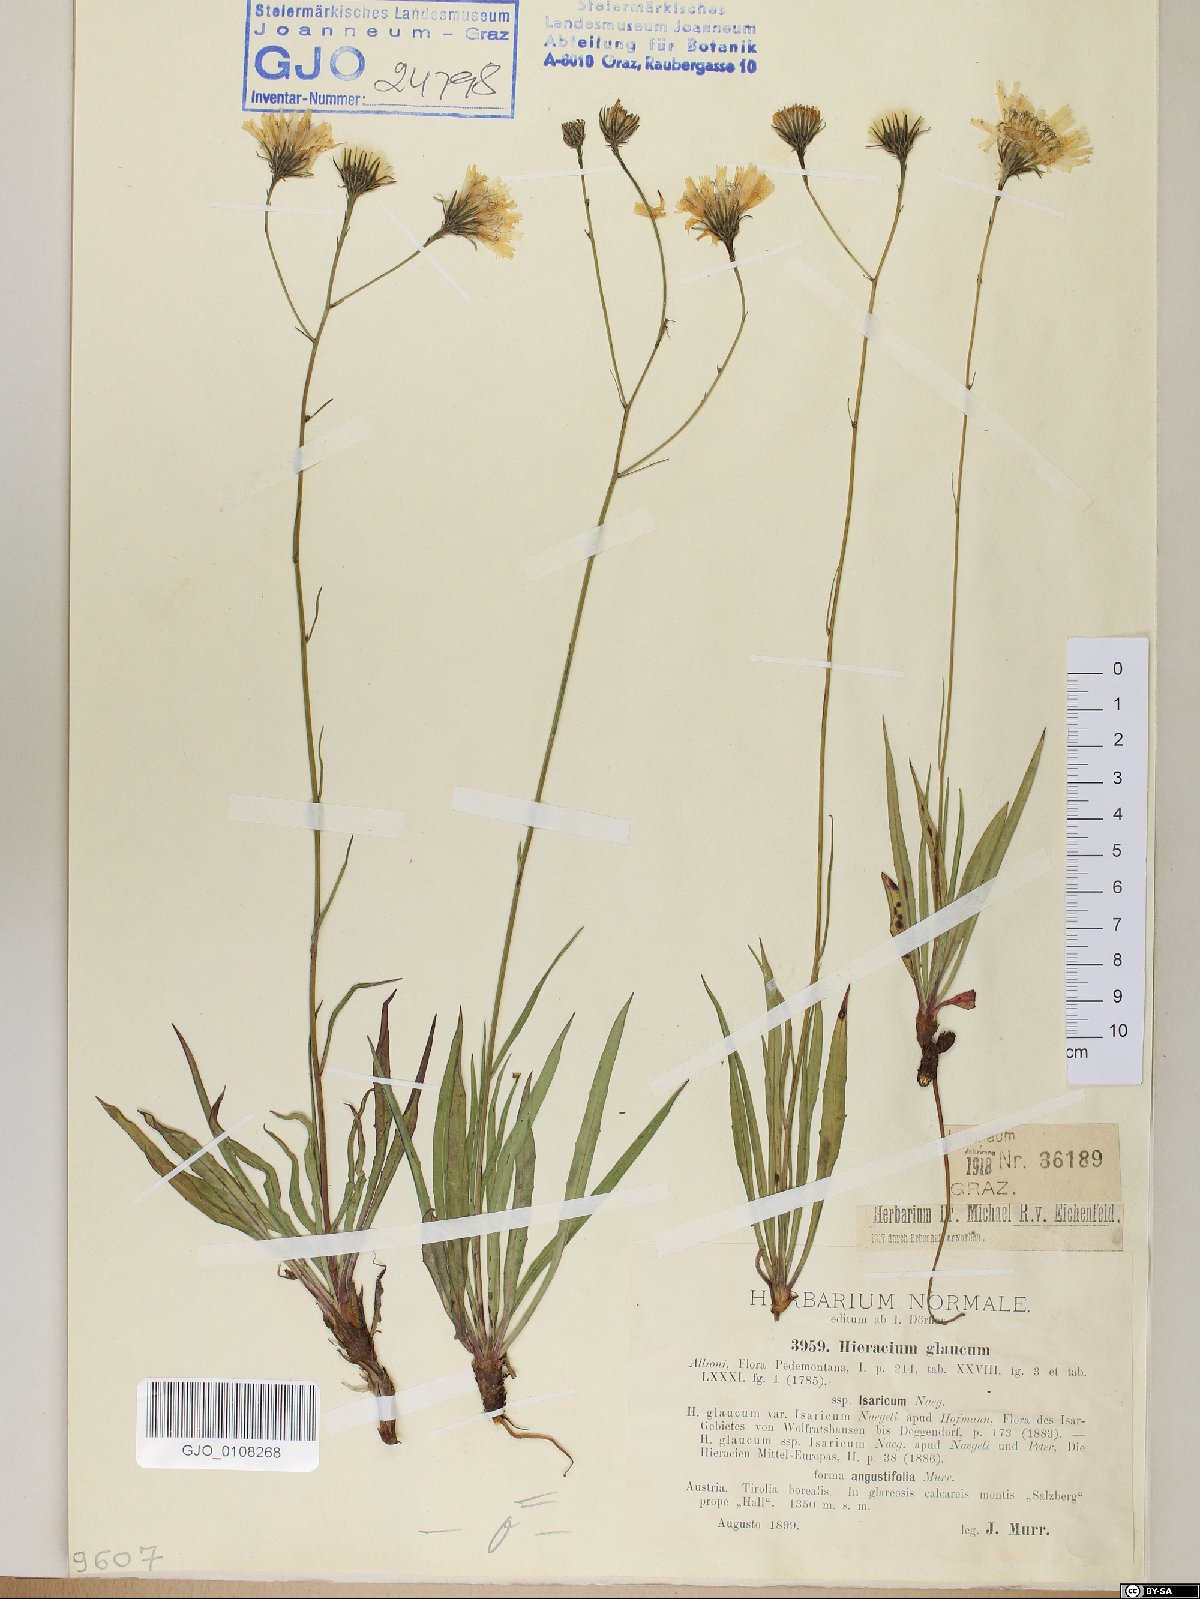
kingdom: Plantae
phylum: Tracheophyta
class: Magnoliopsida
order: Asterales
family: Asteraceae
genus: Hieracium
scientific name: Hieracium glaucum
